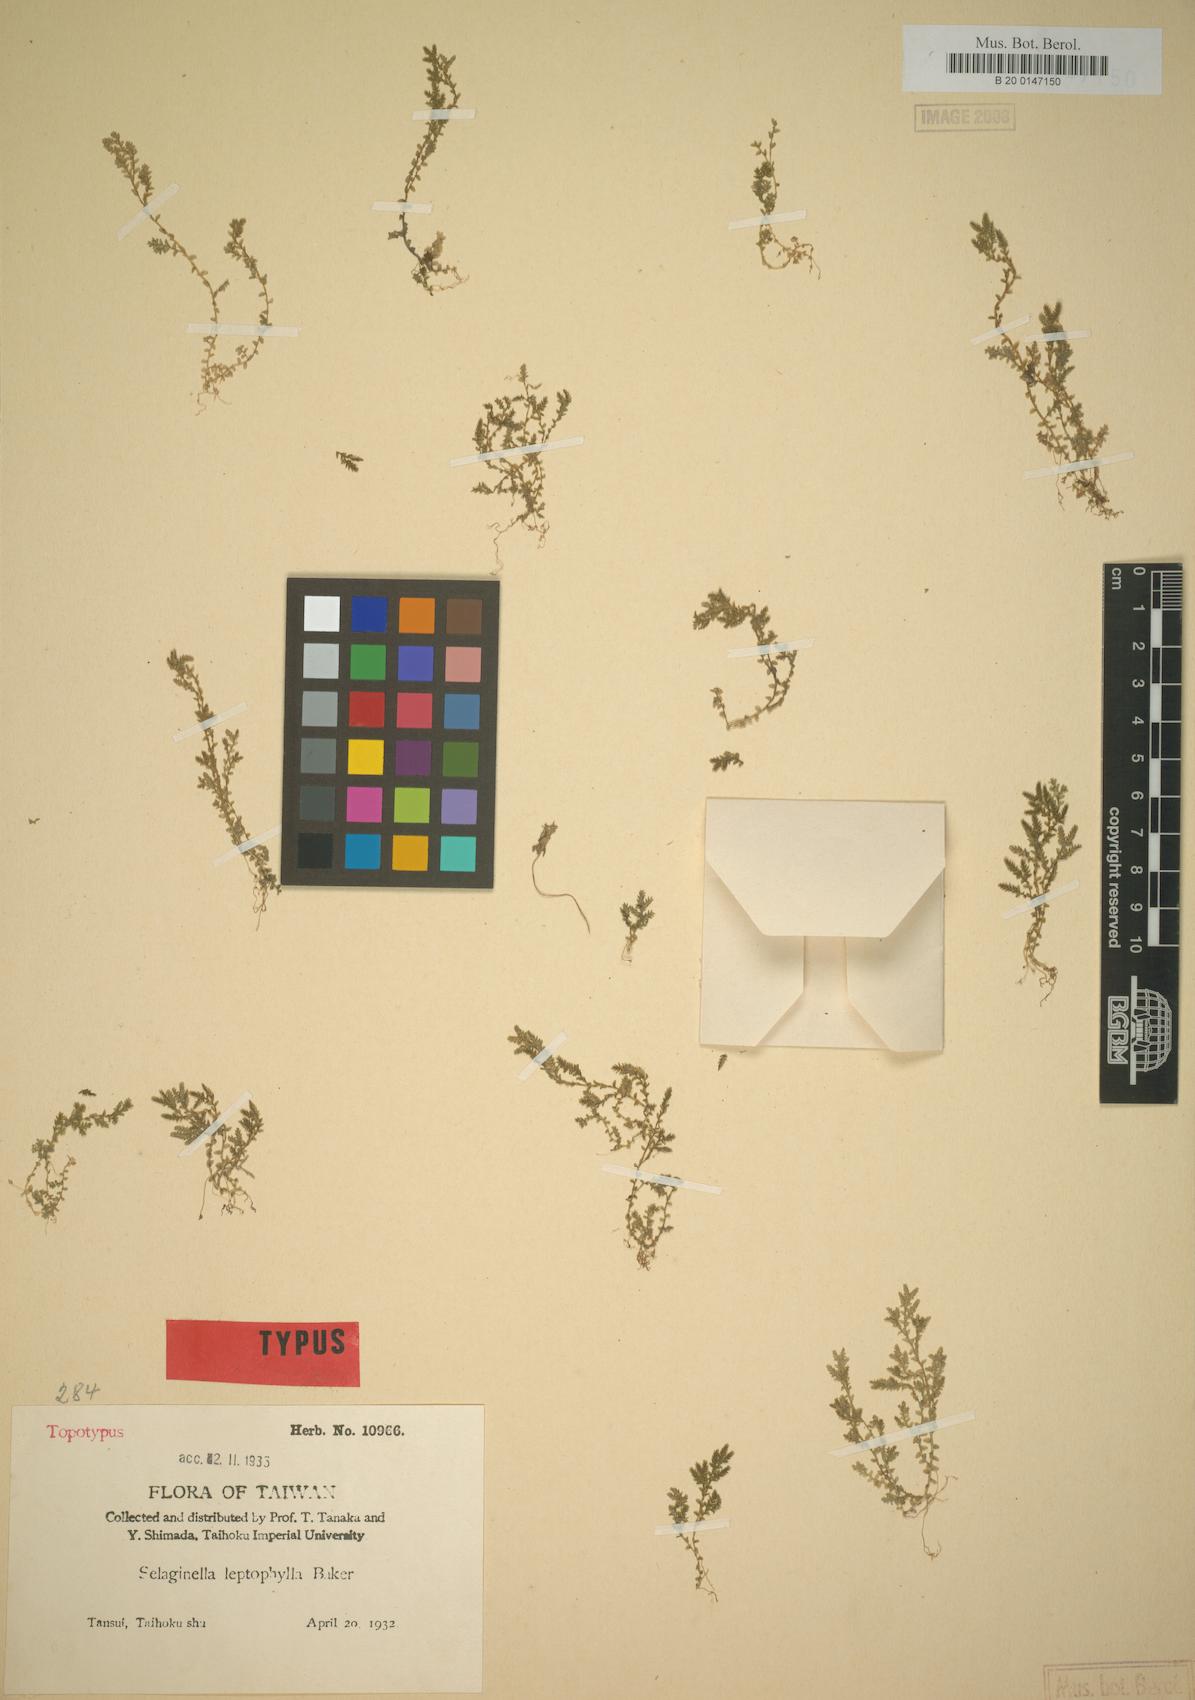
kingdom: Plantae
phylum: Tracheophyta
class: Lycopodiopsida
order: Selaginellales
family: Selaginellaceae
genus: Selaginella
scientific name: Selaginella leptophylla
